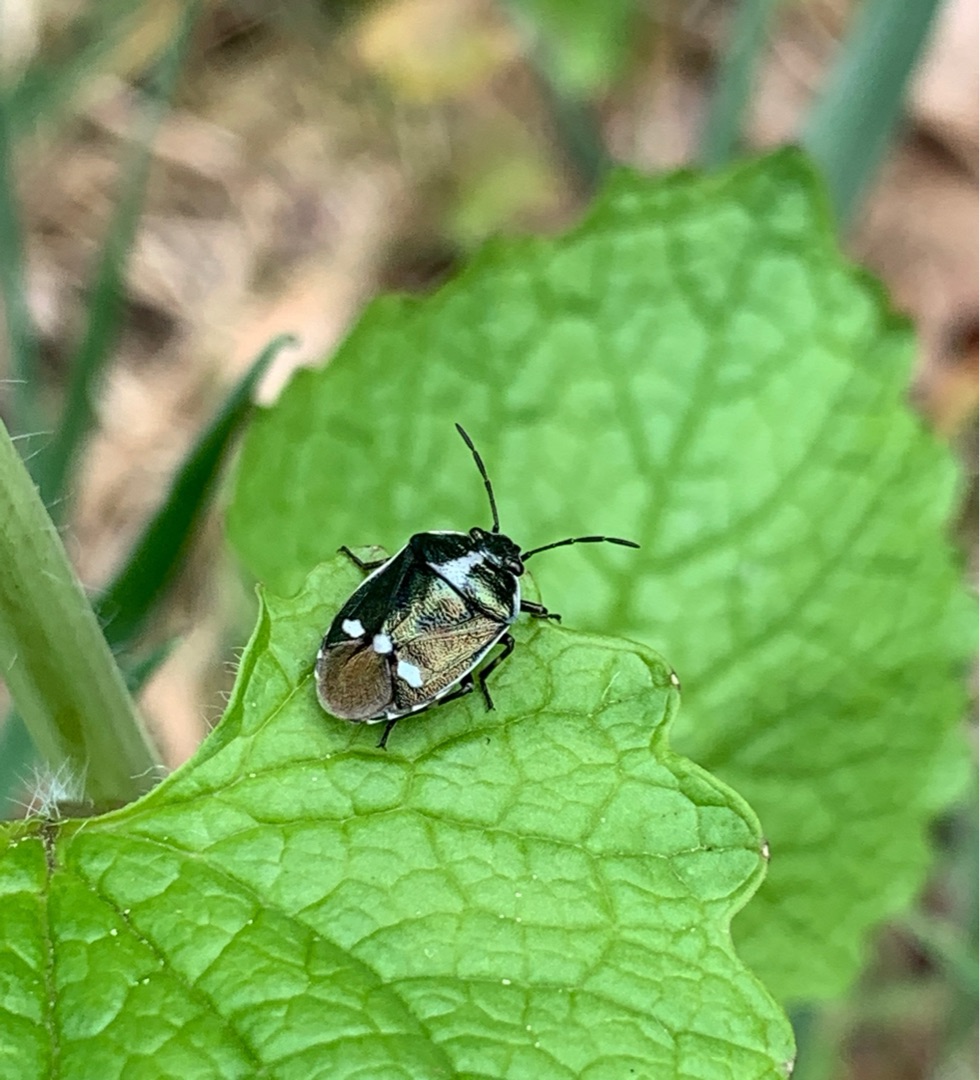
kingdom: Animalia
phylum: Arthropoda
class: Insecta
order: Hemiptera
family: Pentatomidae
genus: Eurydema
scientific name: Eurydema oleracea
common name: Almindelig kåltæge
